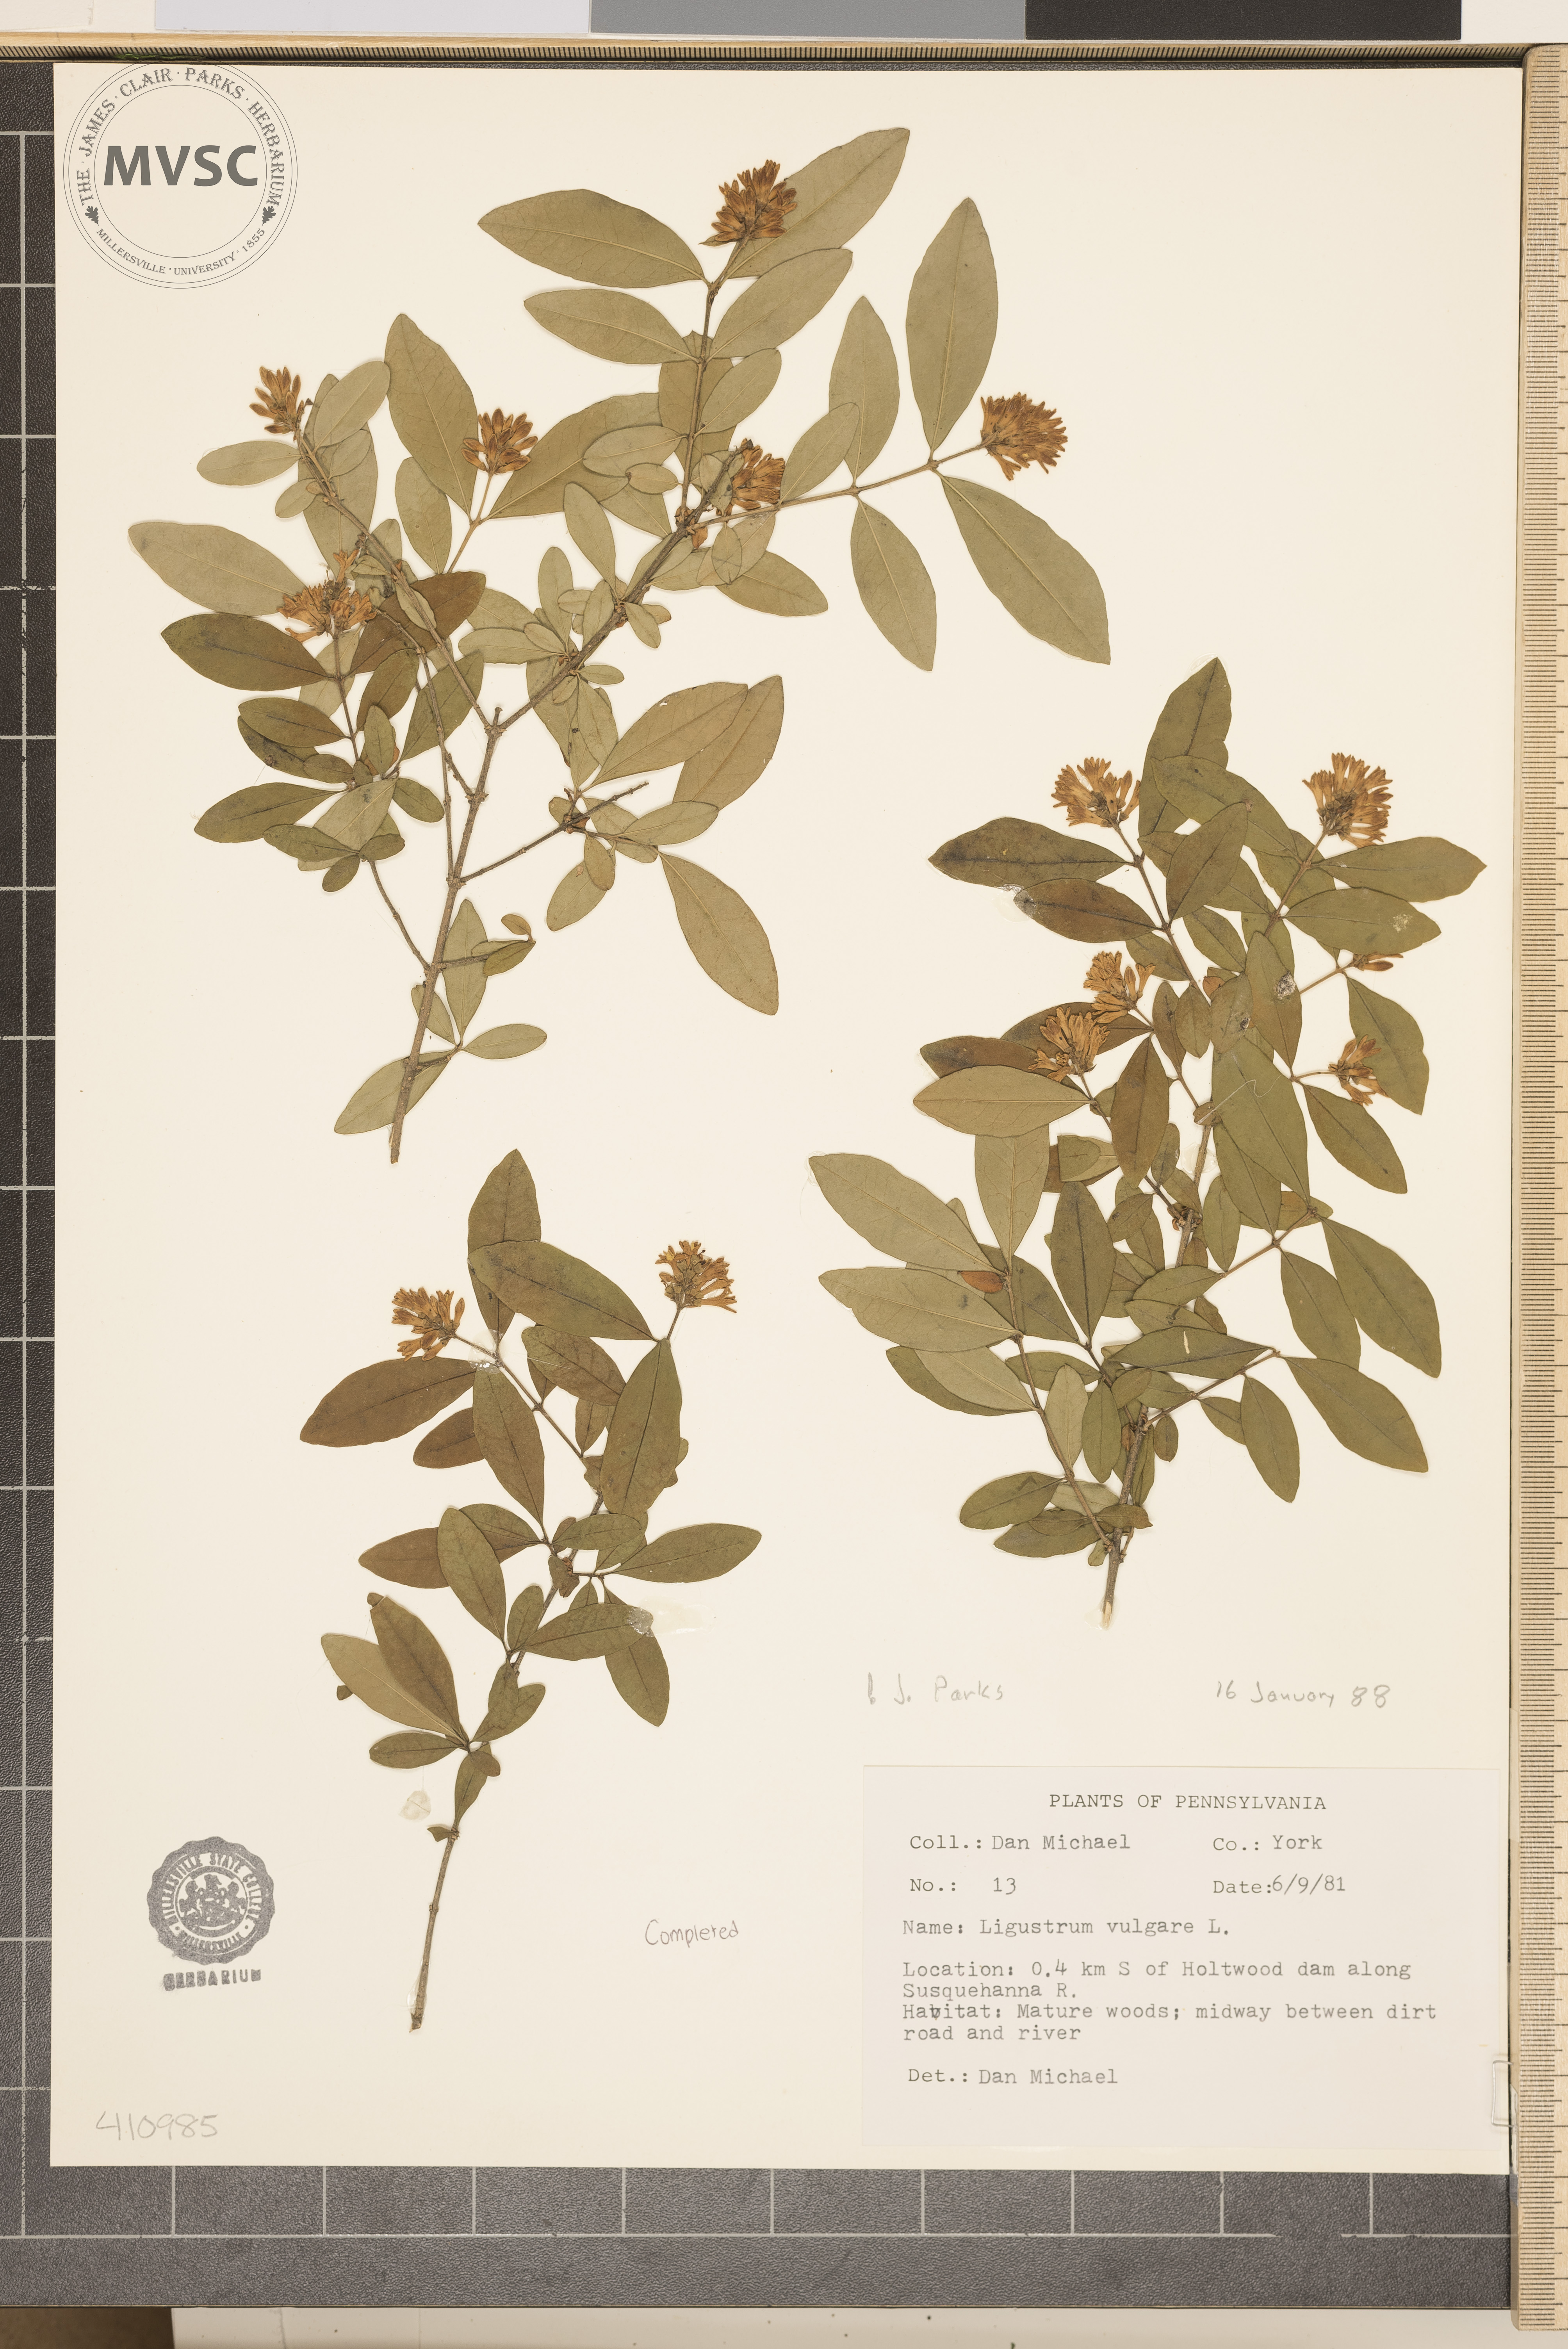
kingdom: Plantae
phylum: Tracheophyta
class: Magnoliopsida
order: Lamiales
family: Oleaceae
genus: Ligustrum
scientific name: Ligustrum vulgare
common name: European privet
